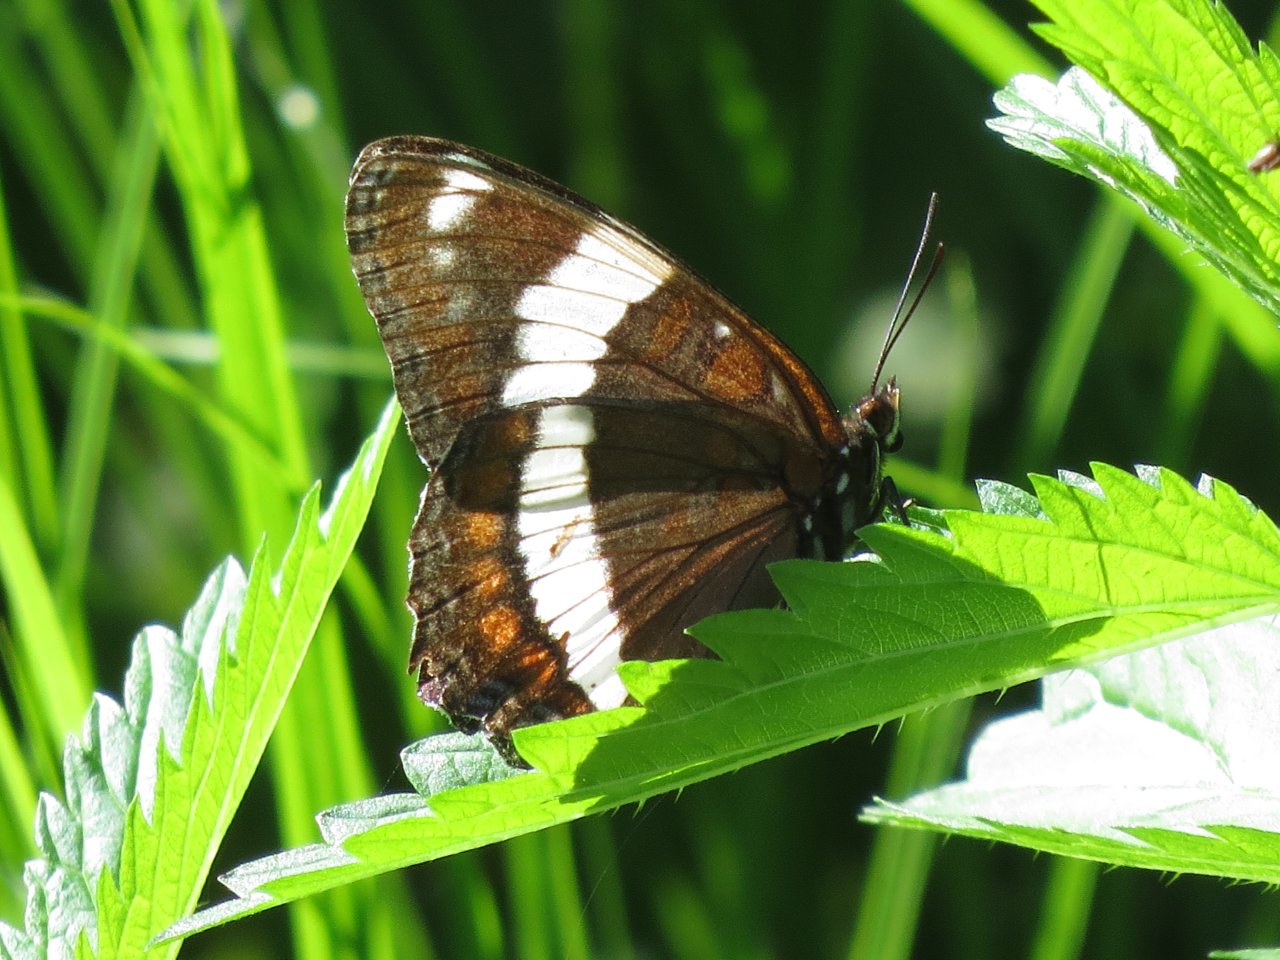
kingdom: Animalia
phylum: Arthropoda
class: Insecta
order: Lepidoptera
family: Nymphalidae
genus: Limenitis
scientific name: Limenitis arthemis
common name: Red-spotted Admiral
